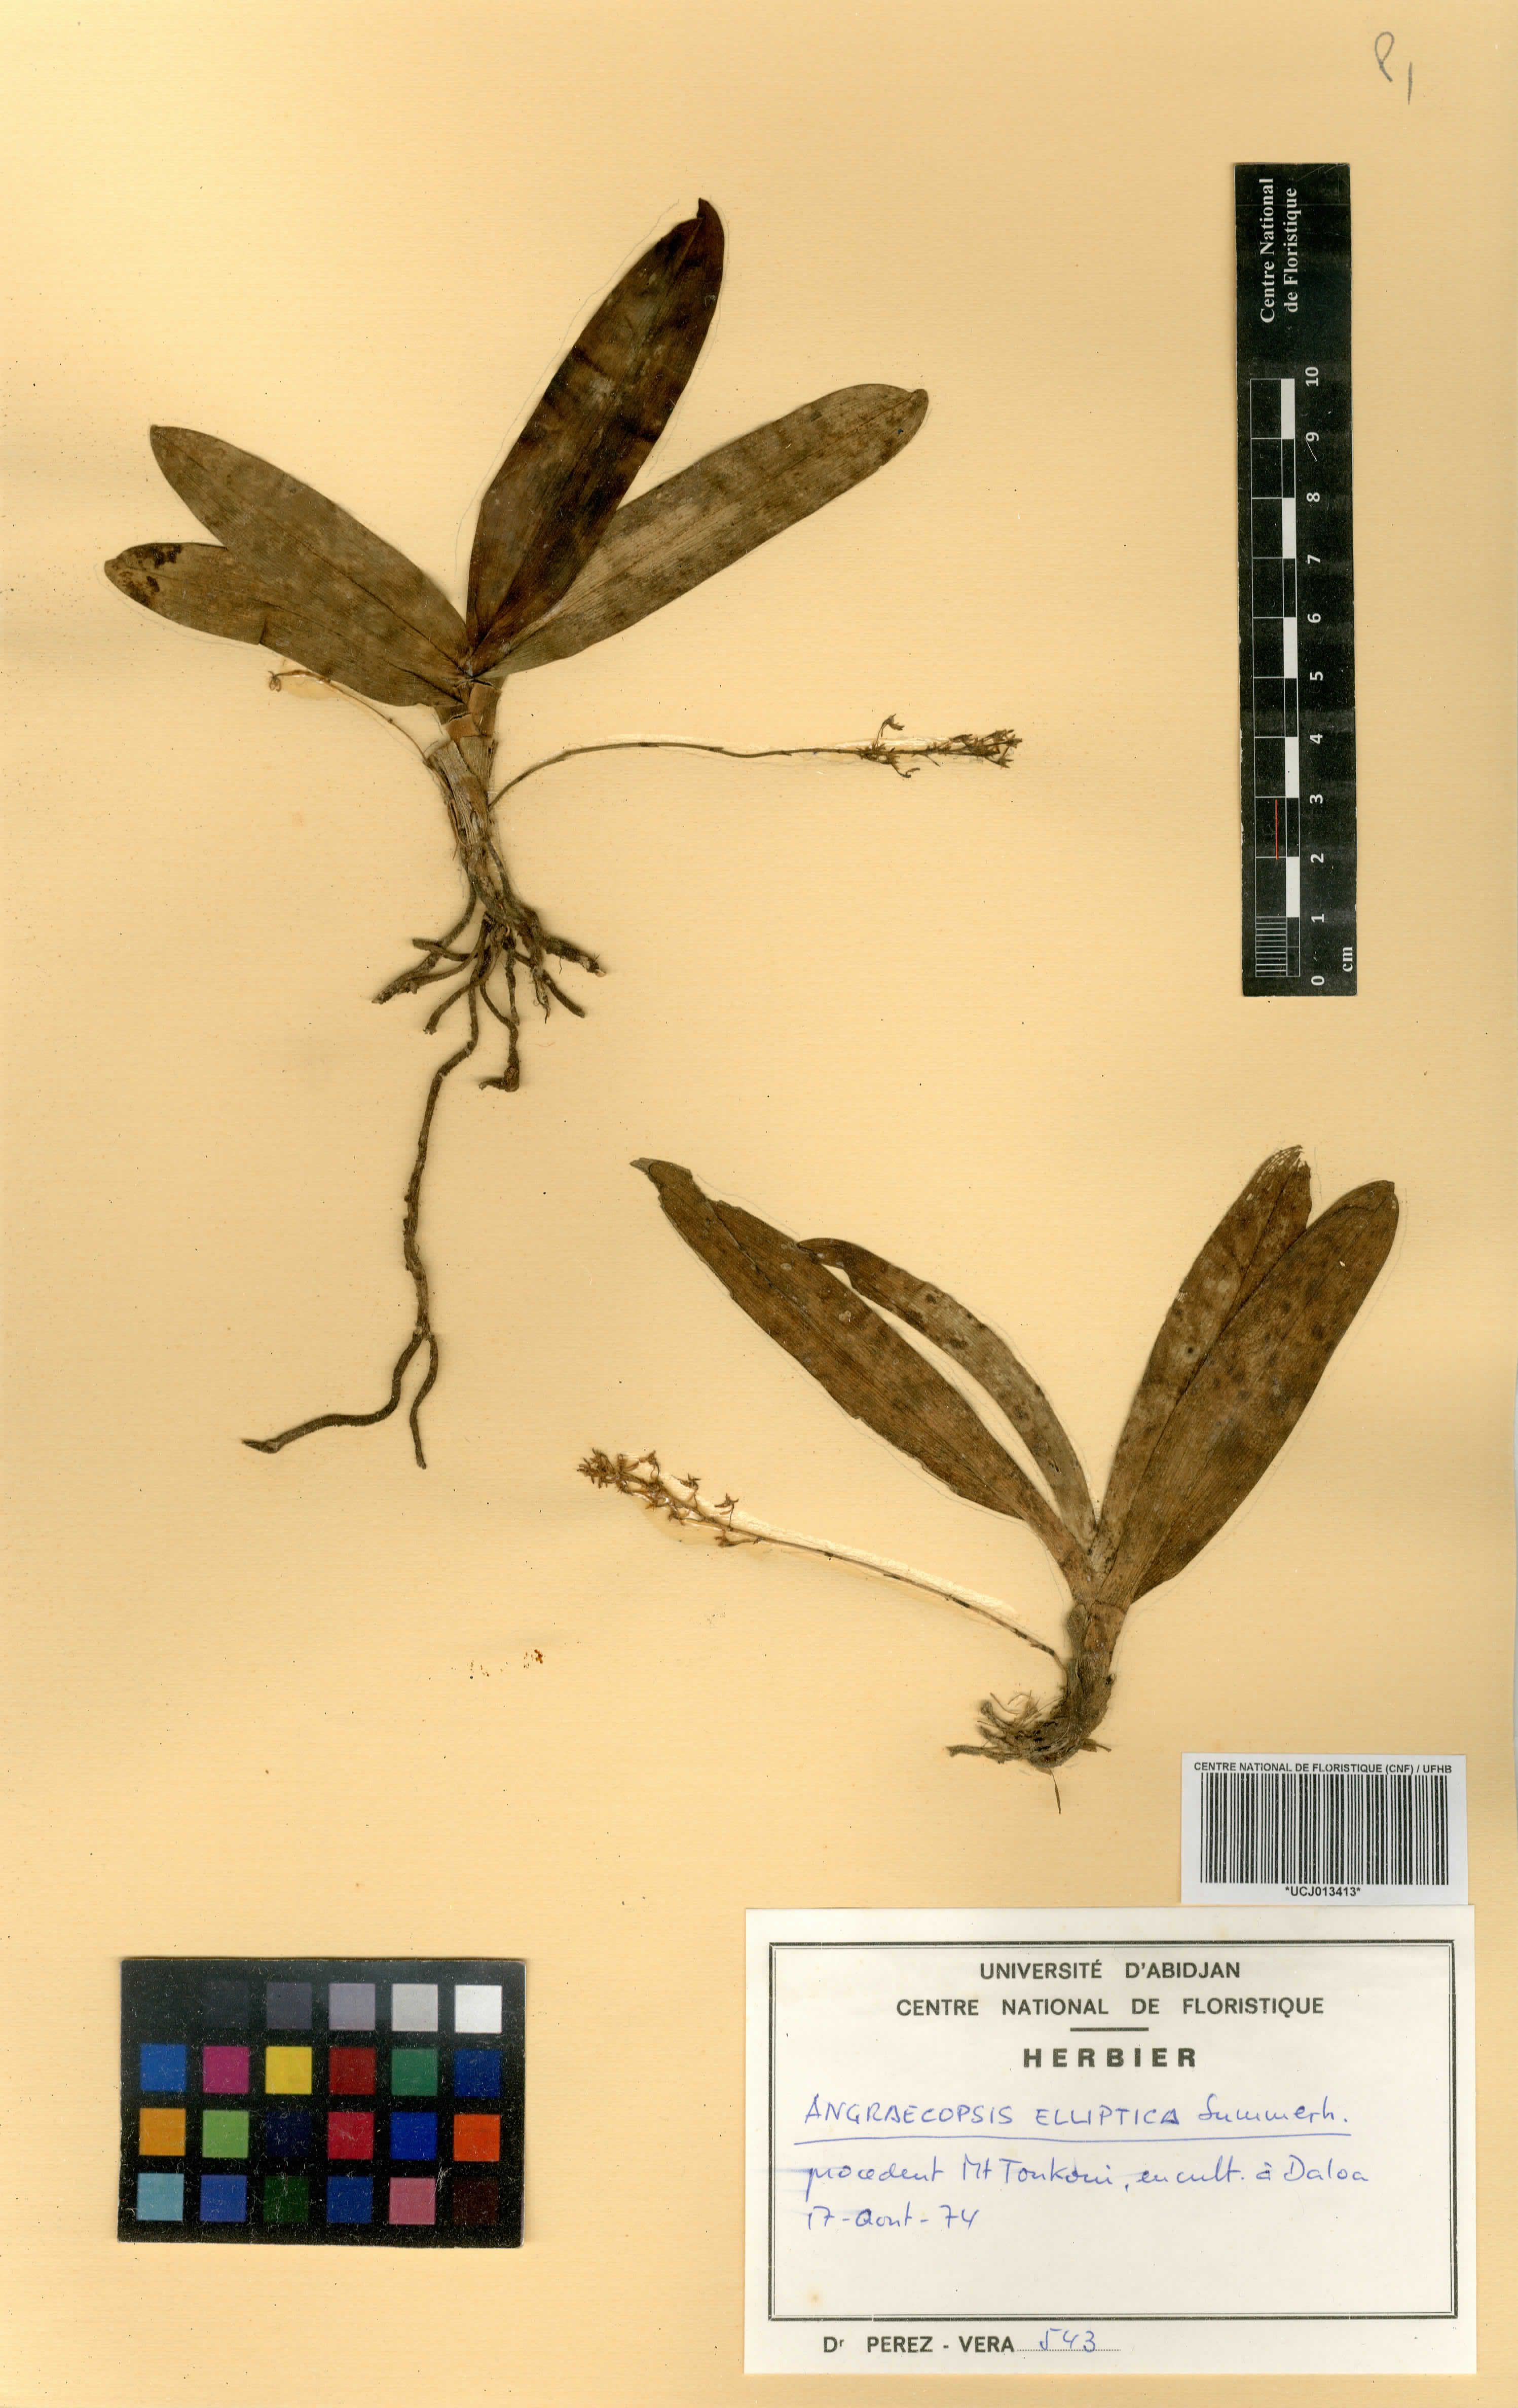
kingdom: Plantae
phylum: Tracheophyta
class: Liliopsida
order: Asparagales
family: Orchidaceae
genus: Angraecopsis
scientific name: Angraecopsis elliptica
